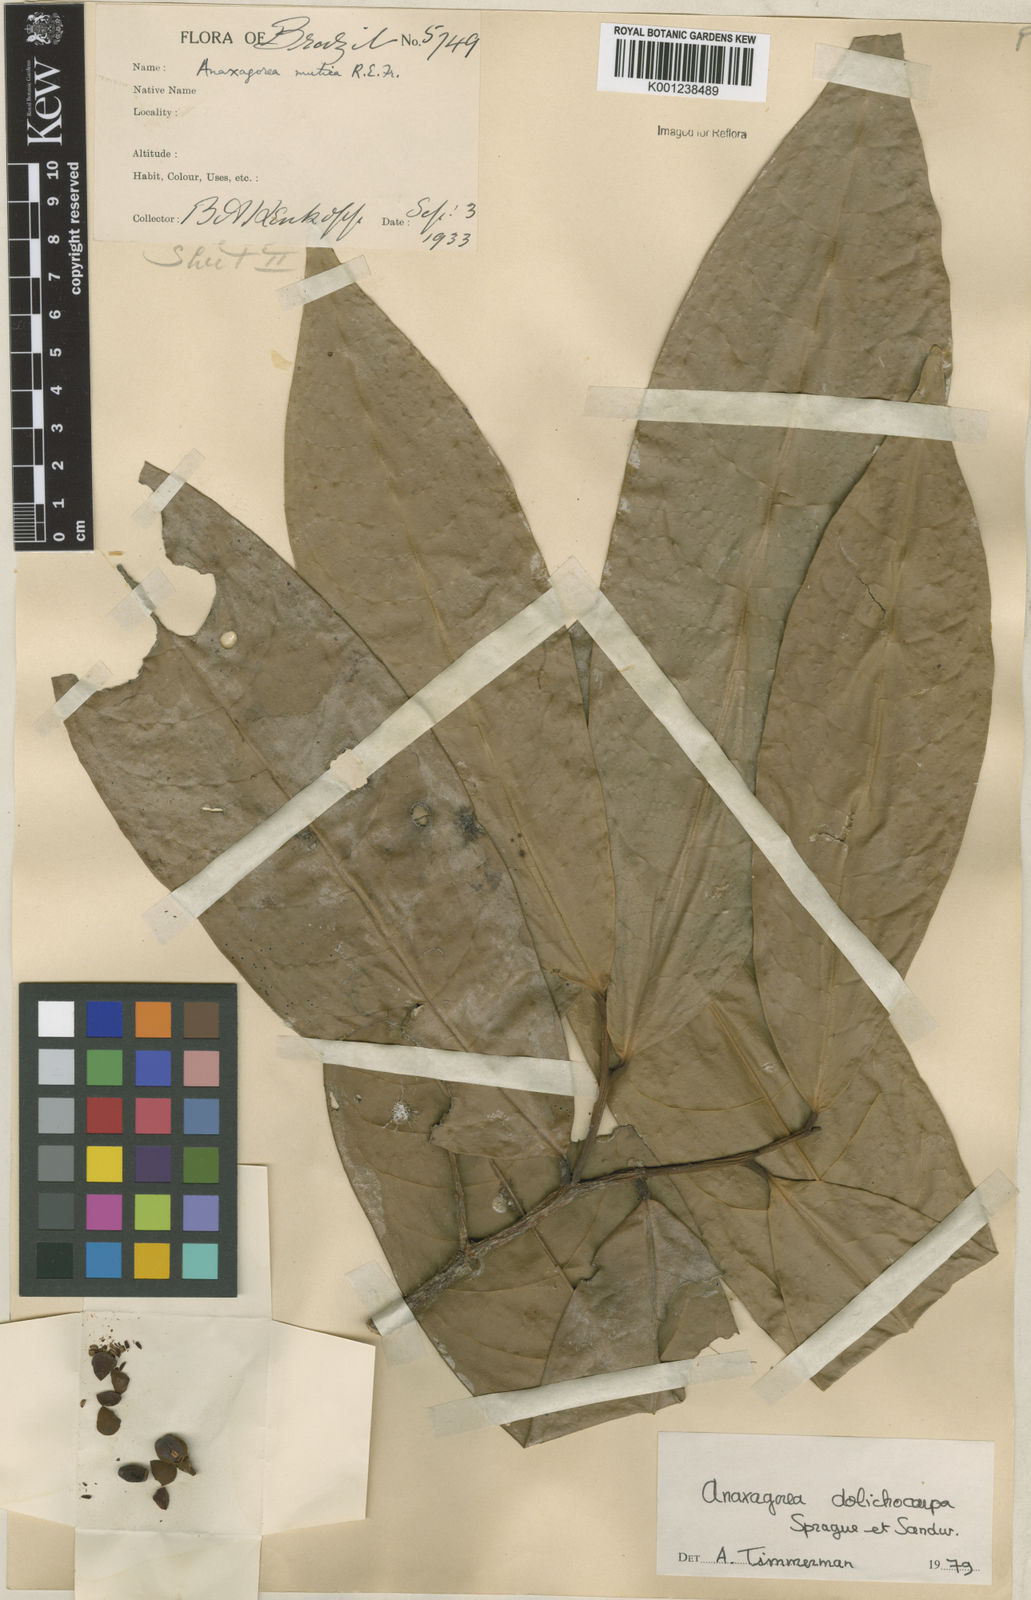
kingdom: Plantae
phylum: Tracheophyta
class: Magnoliopsida
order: Magnoliales
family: Annonaceae
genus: Anaxagorea
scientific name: Anaxagorea dolichocarpa
